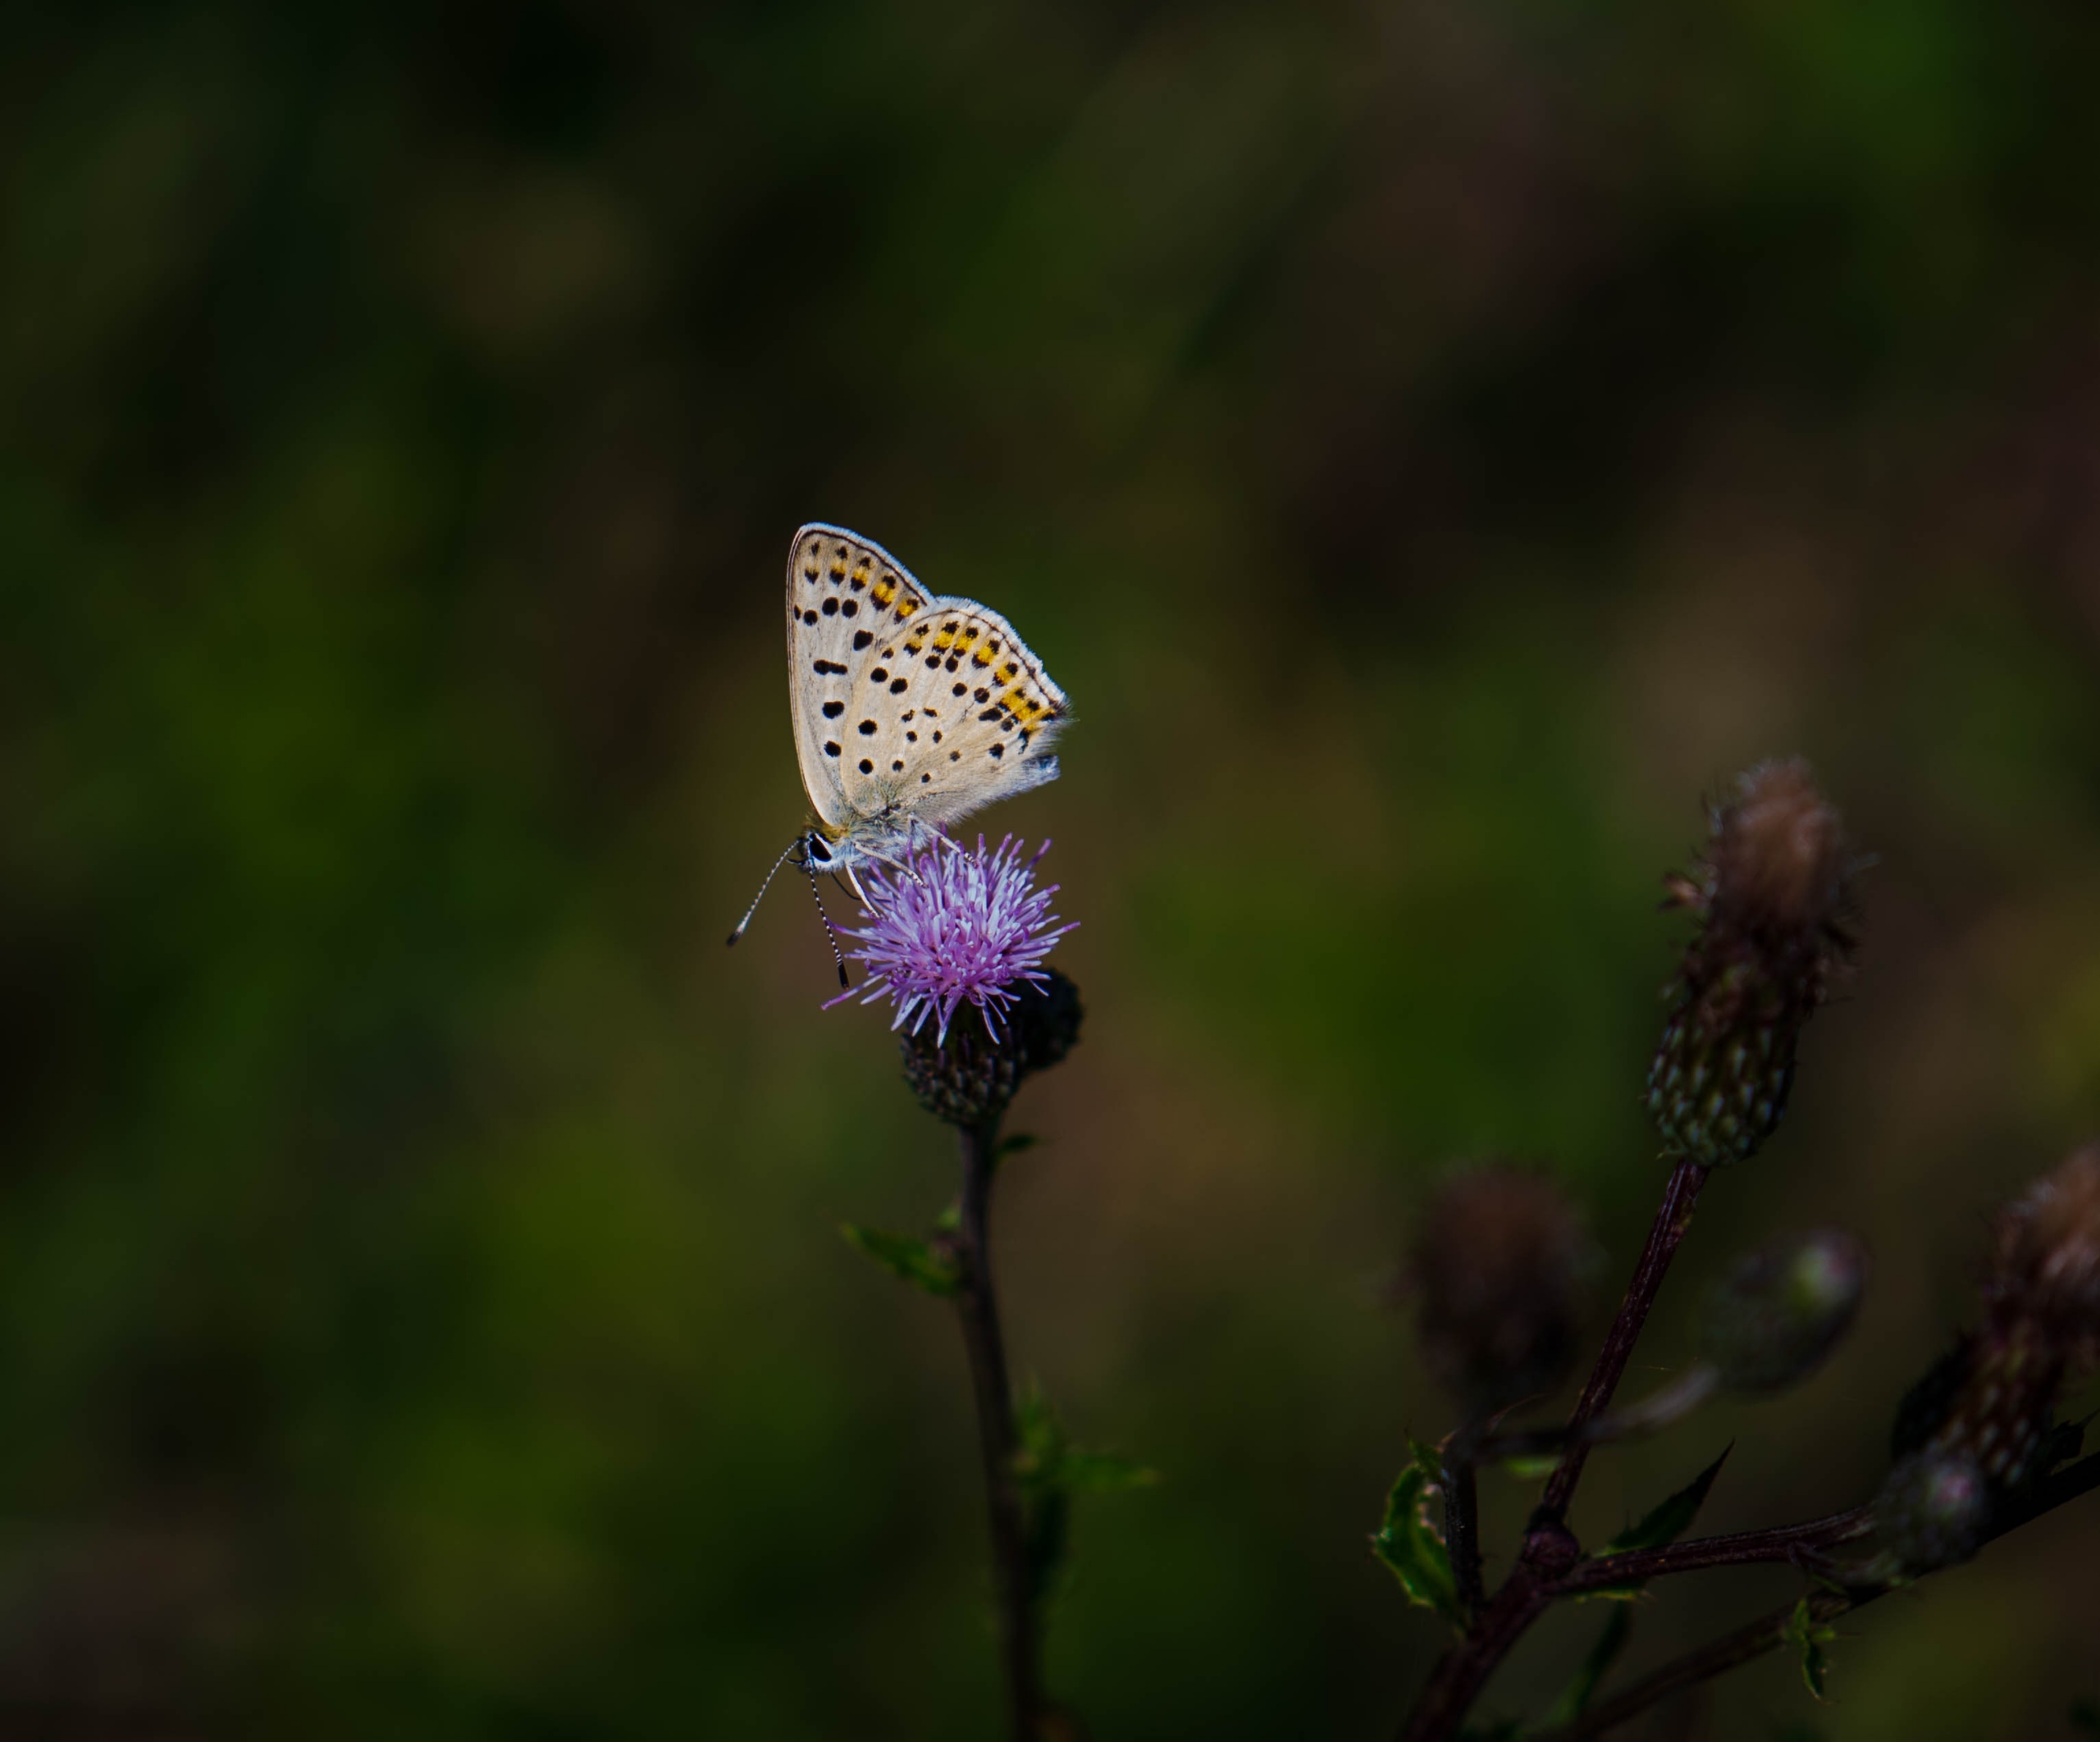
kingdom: Animalia
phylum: Arthropoda
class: Insecta
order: Lepidoptera
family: Lycaenidae
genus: Loweia
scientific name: Loweia tityrus
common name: Sort ildfugl
